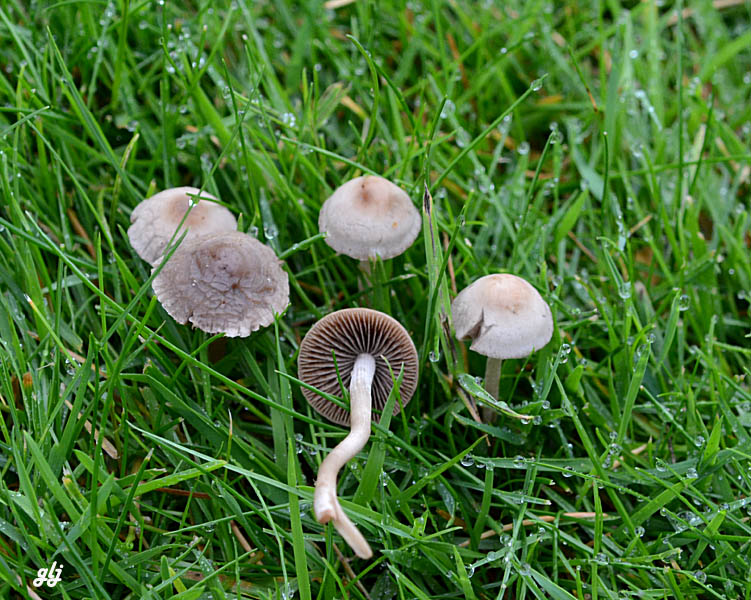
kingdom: Fungi
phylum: Basidiomycota
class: Agaricomycetes
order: Agaricales
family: Bolbitiaceae
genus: Panaeolina
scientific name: Panaeolina foenisecii
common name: høslætsvamp
